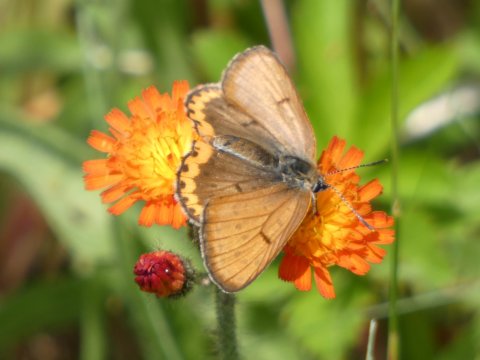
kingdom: Animalia
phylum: Arthropoda
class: Insecta
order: Lepidoptera
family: Sesiidae
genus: Sesia
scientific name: Sesia Lycaena hyllus
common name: Bronze Copper
